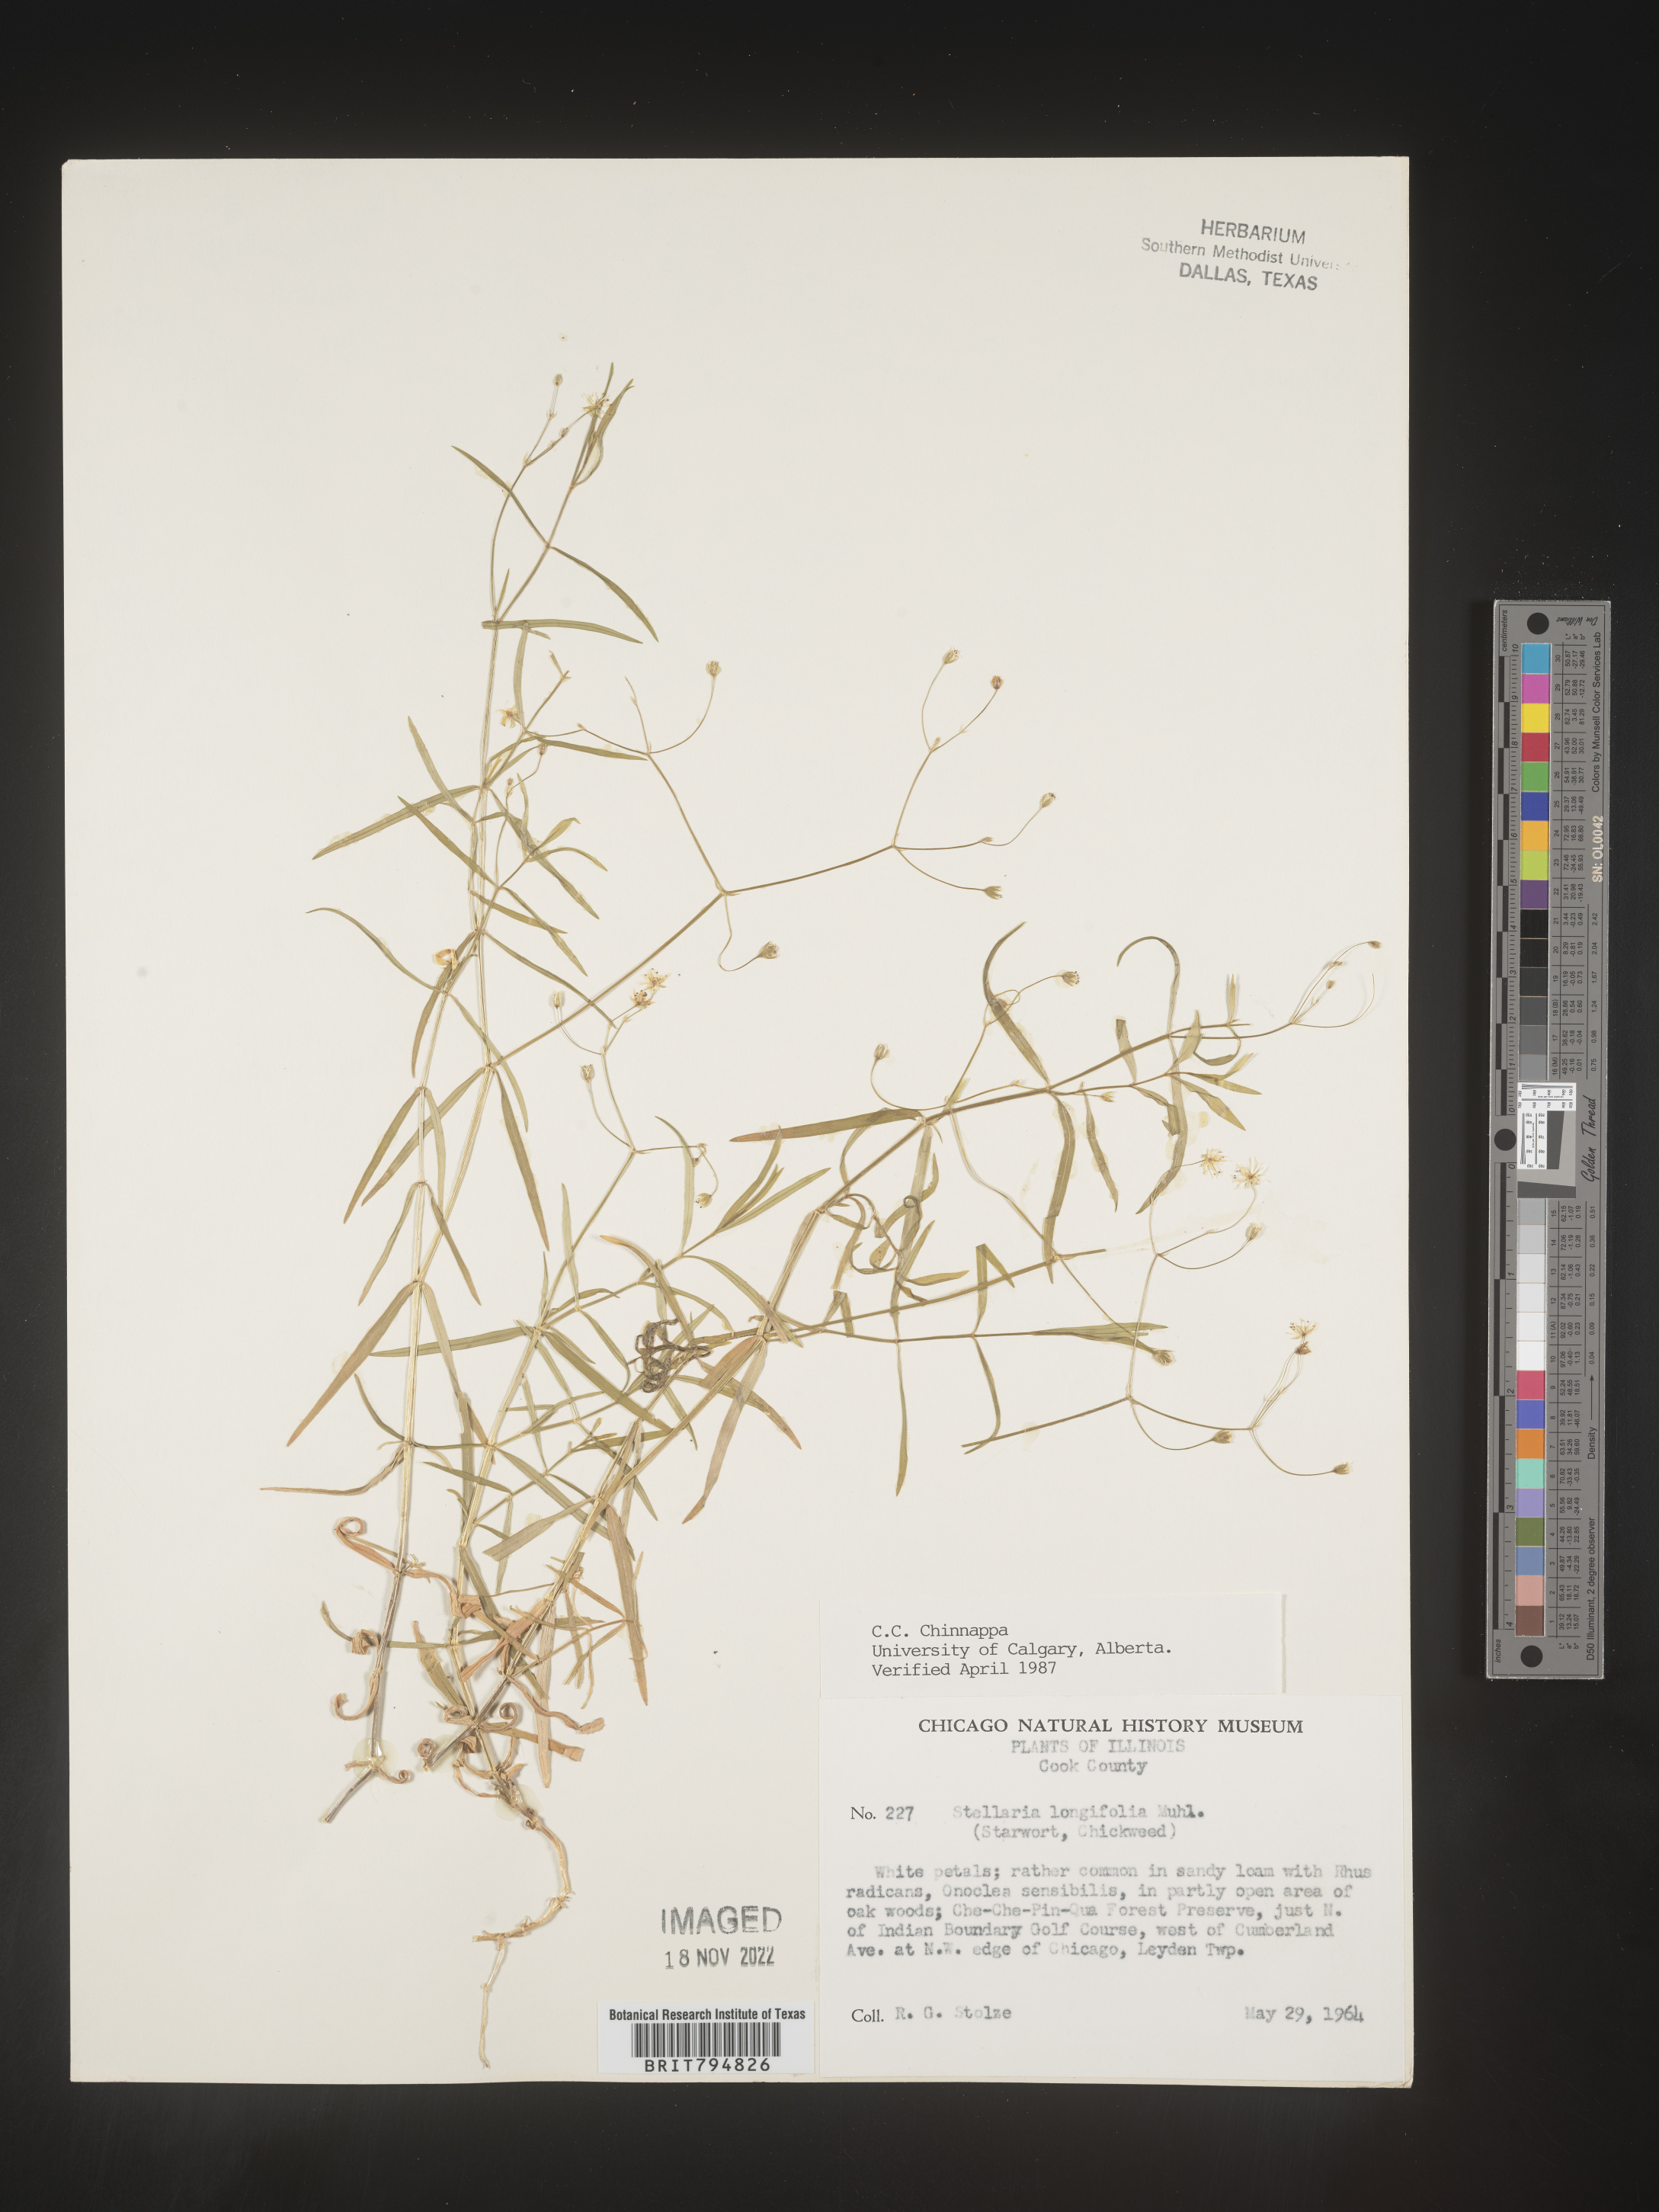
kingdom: Plantae
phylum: Tracheophyta
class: Magnoliopsida
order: Caryophyllales
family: Caryophyllaceae
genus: Stellaria
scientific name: Stellaria longifolia
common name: Long-leaved chickweed
